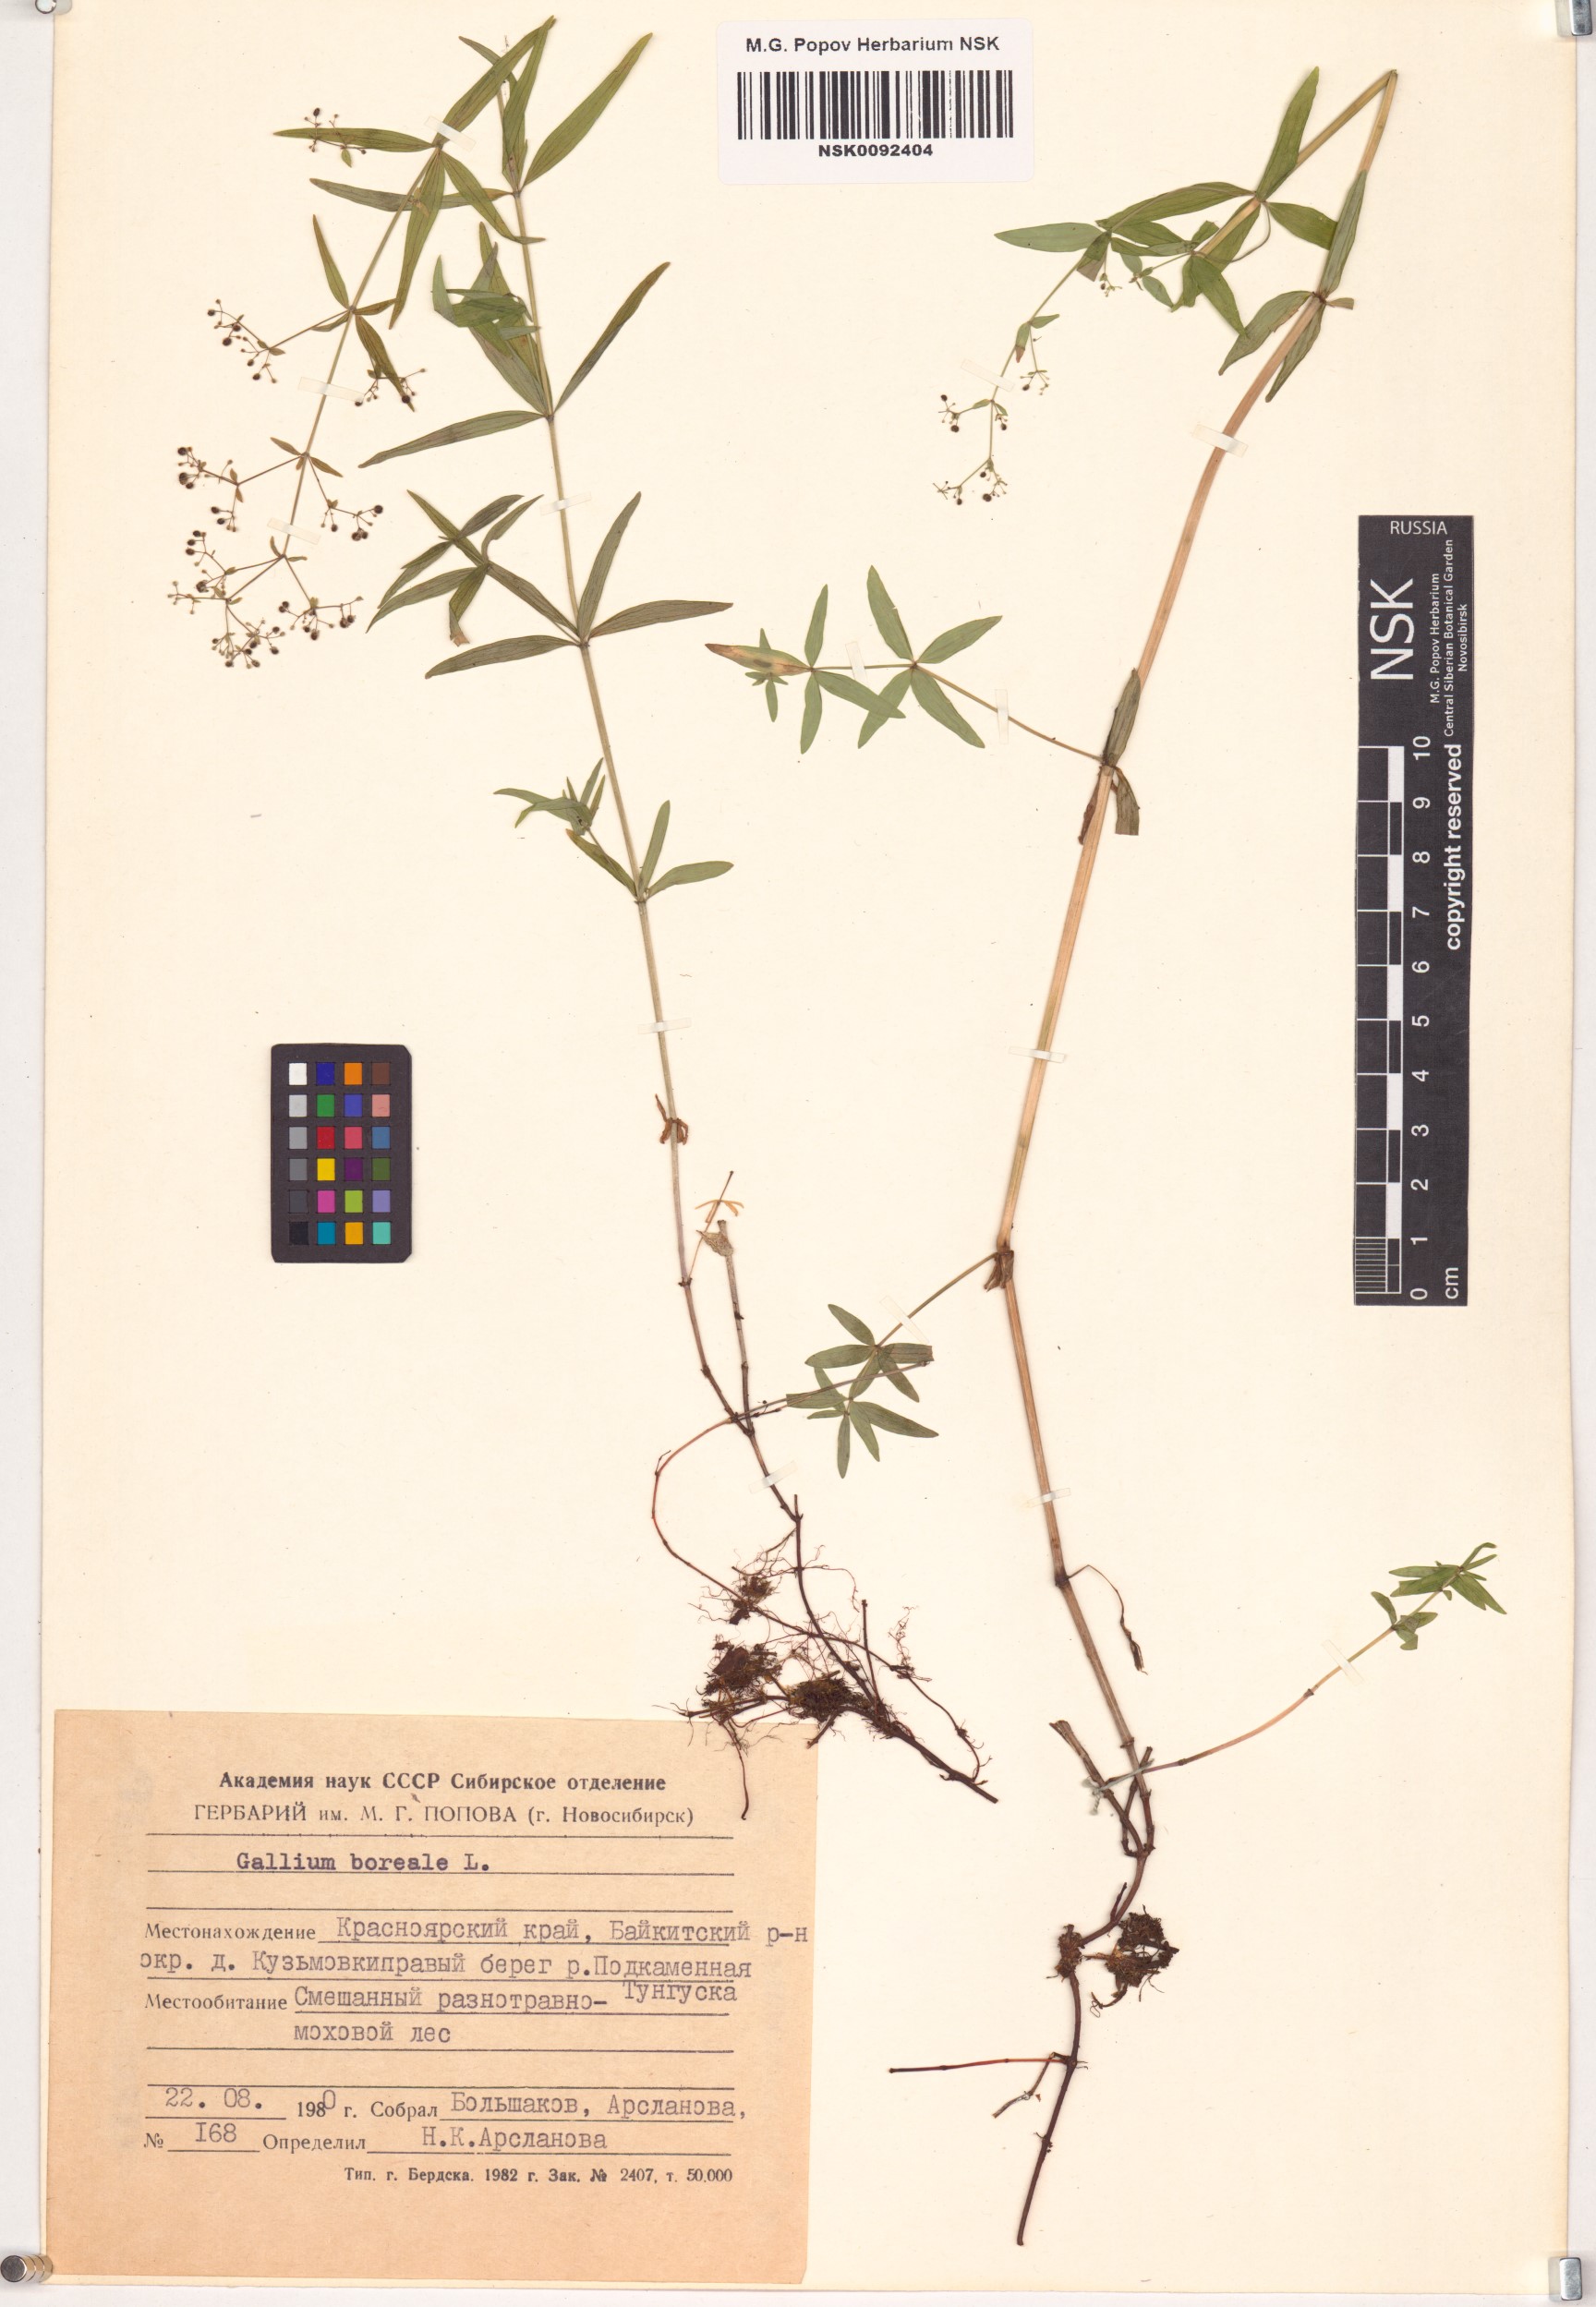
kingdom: Plantae
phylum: Tracheophyta
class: Magnoliopsida
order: Gentianales
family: Rubiaceae
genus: Galium
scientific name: Galium boreale
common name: Northern bedstraw
